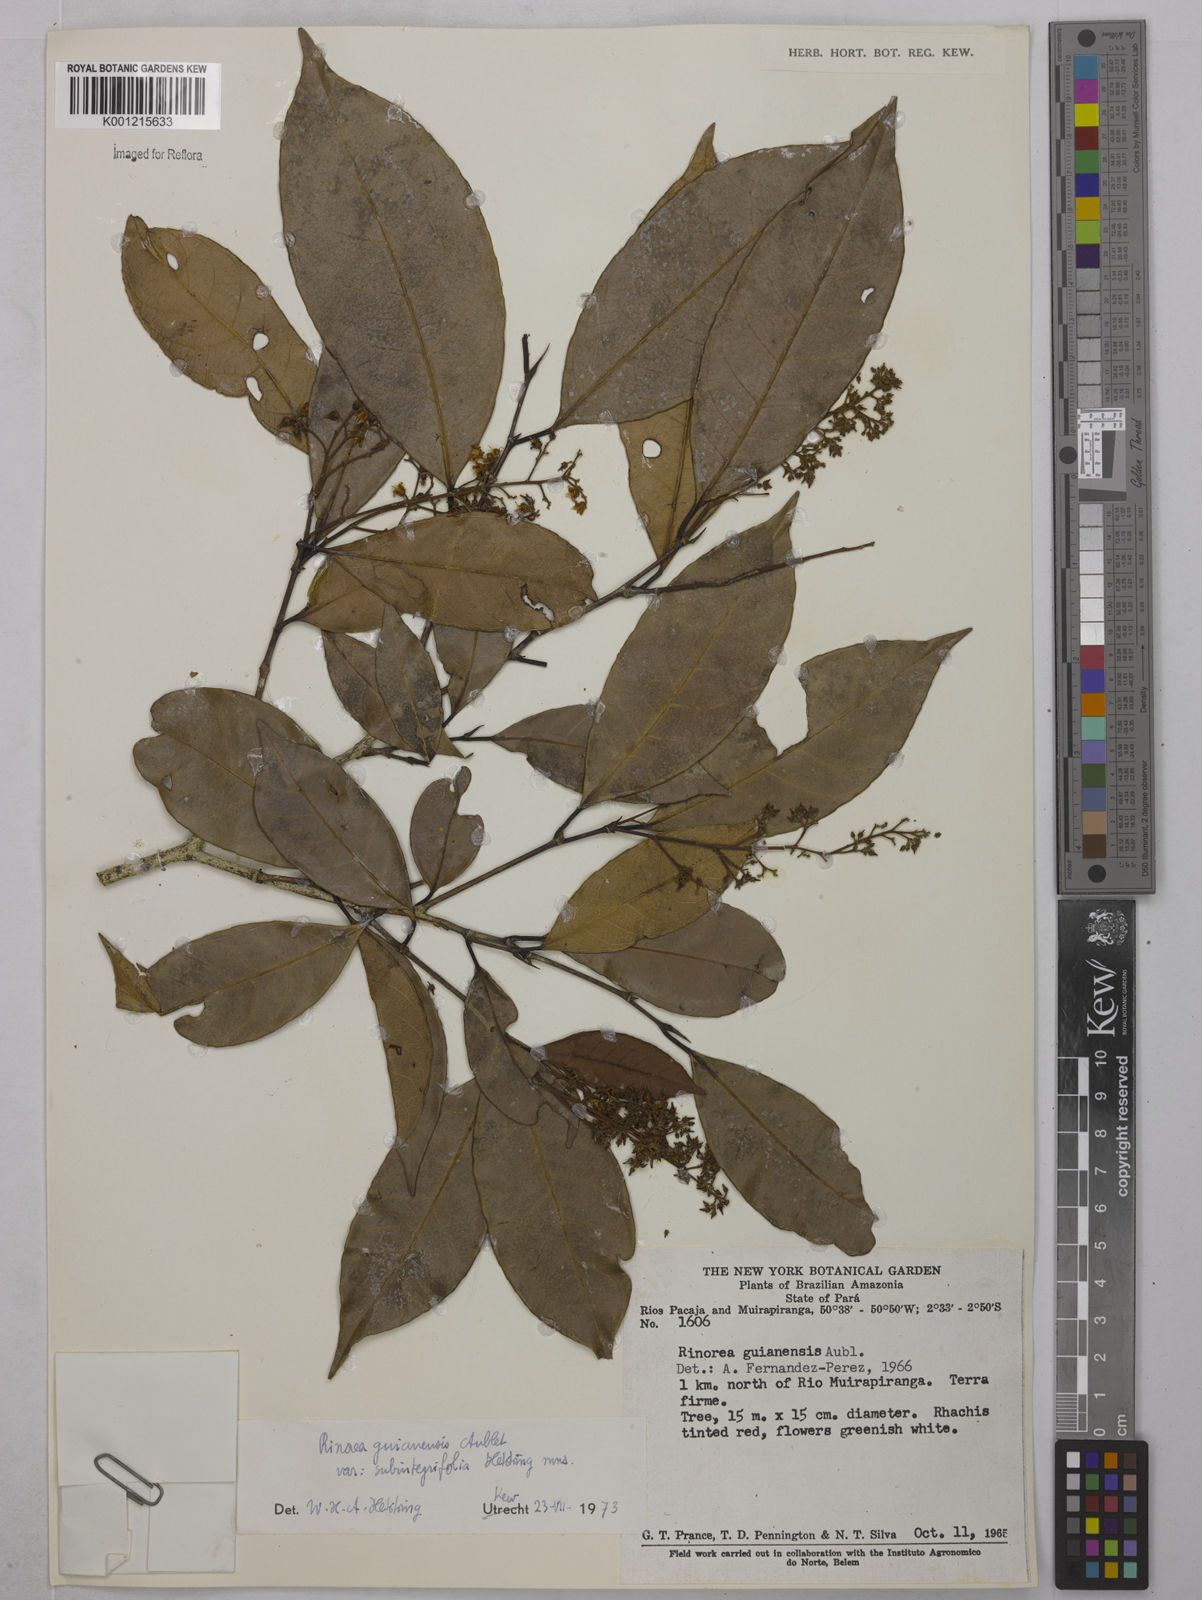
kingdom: Plantae
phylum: Tracheophyta
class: Magnoliopsida
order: Malpighiales
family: Violaceae
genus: Rinorea
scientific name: Rinorea guianensis
